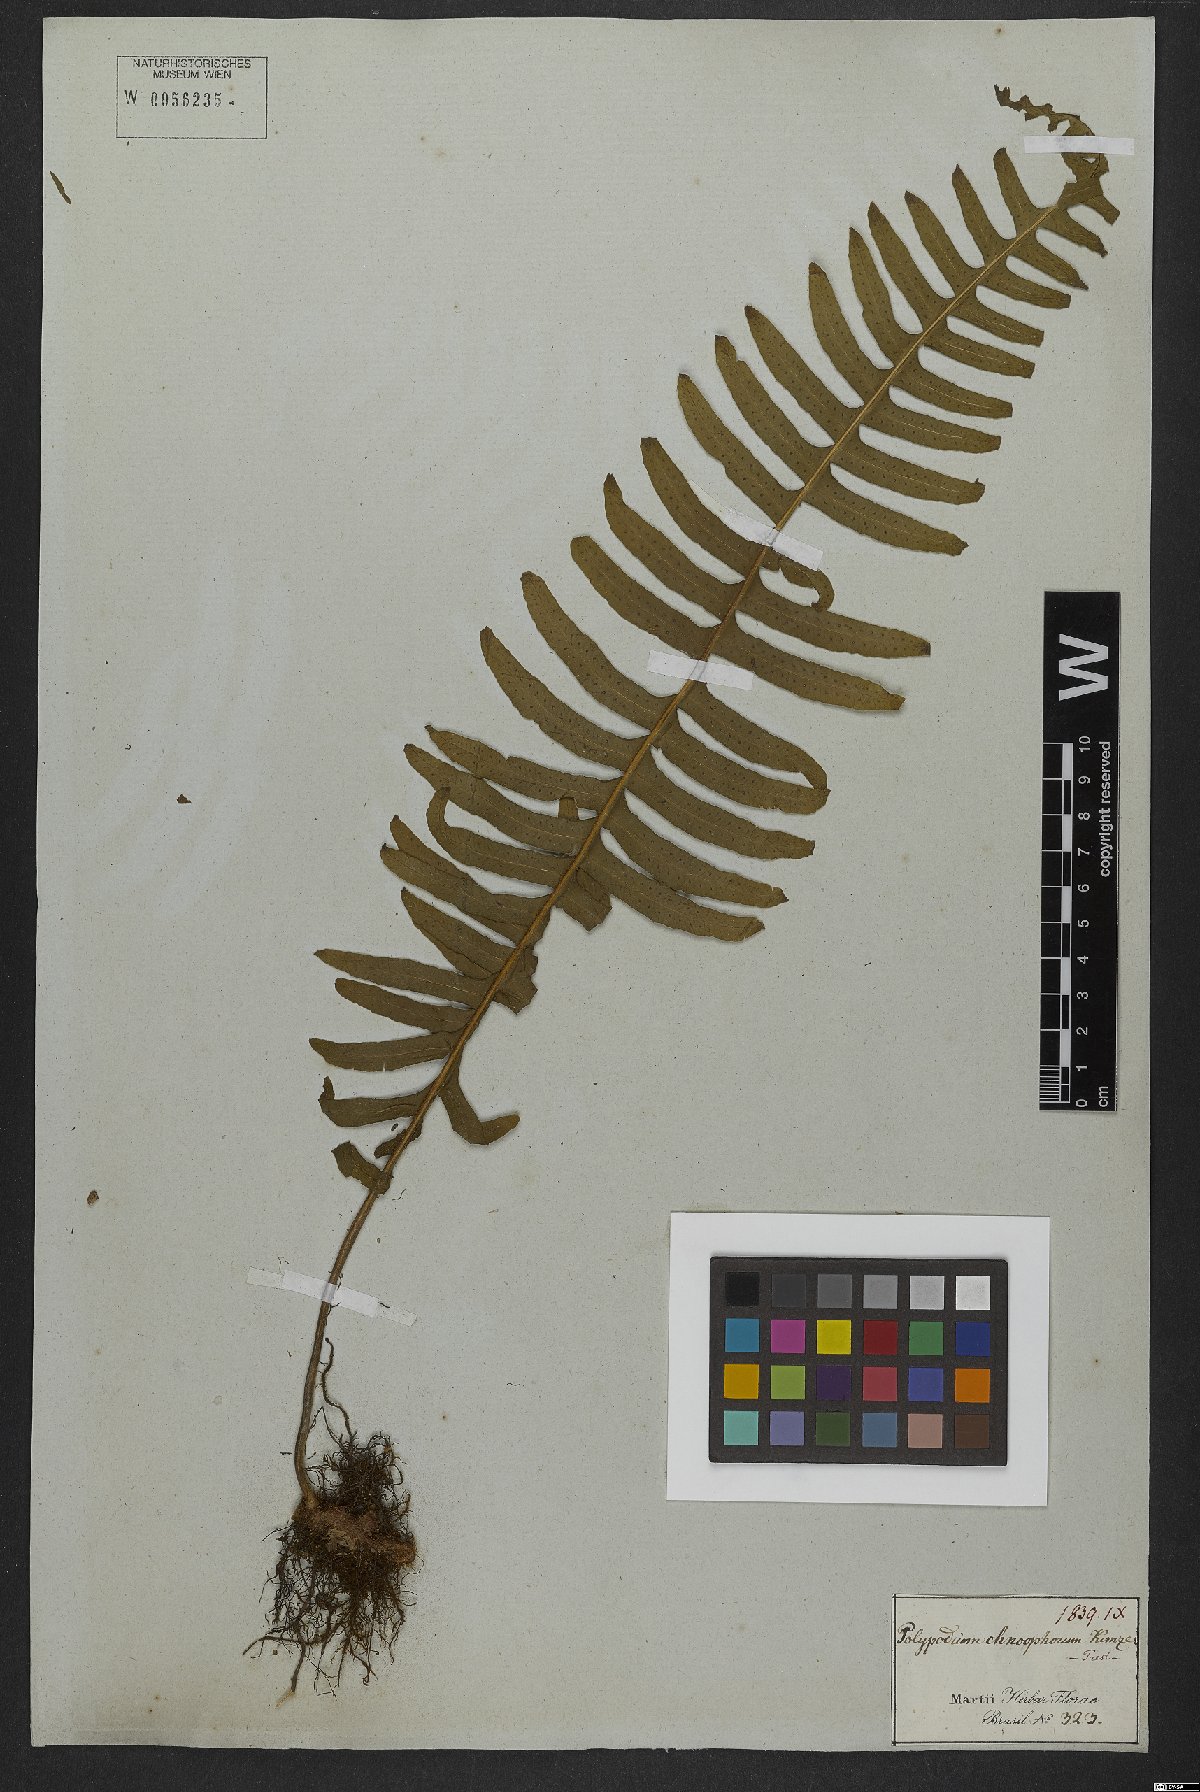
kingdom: Plantae
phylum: Tracheophyta
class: Polypodiopsida
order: Polypodiales
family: Polypodiaceae
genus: Pecluma
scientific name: Pecluma chnoophora
